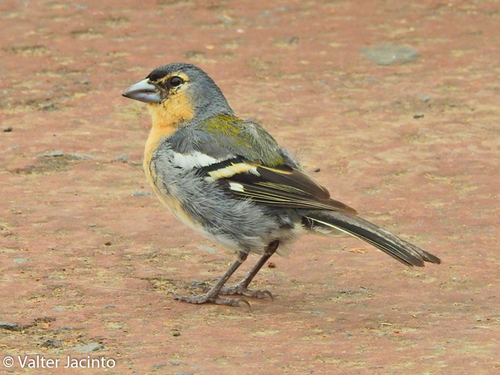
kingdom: Animalia
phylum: Chordata
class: Aves
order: Passeriformes
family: Fringillidae
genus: Fringilla
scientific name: Fringilla coelebs
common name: Common chaffinch
